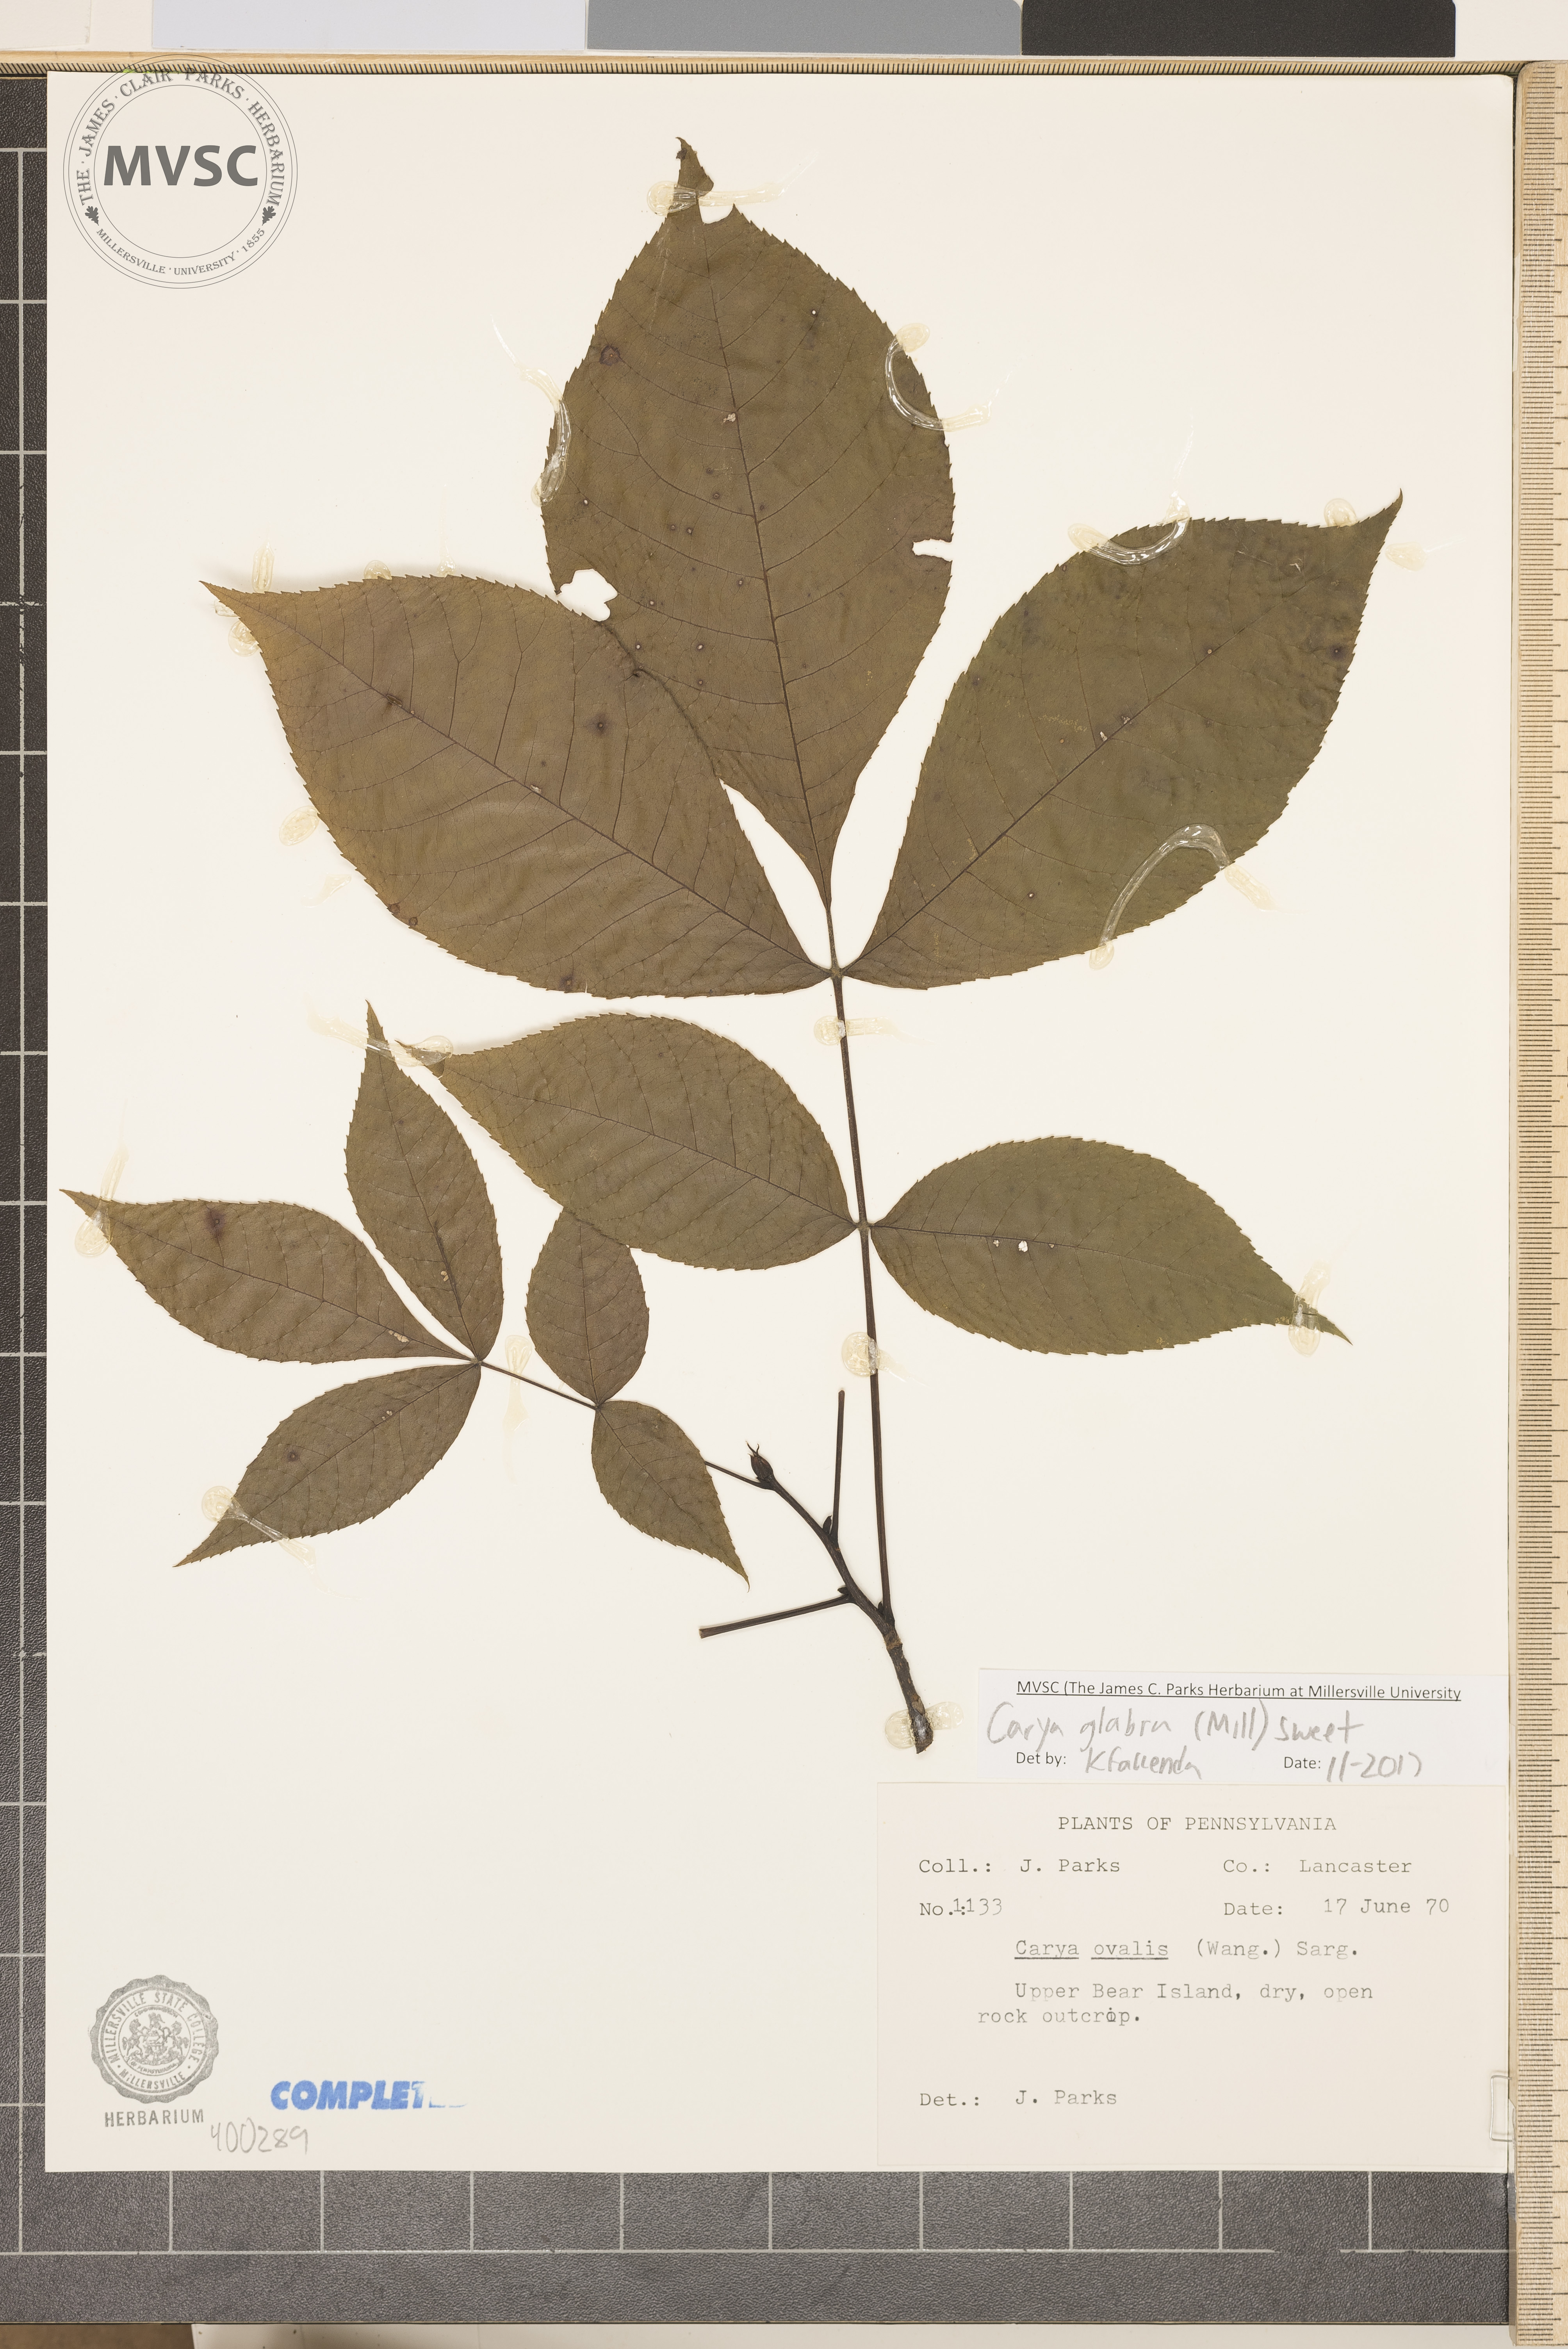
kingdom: Plantae
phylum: Tracheophyta
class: Magnoliopsida
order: Fagales
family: Juglandaceae
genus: Carya
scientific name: Carya glabra
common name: red hickory
